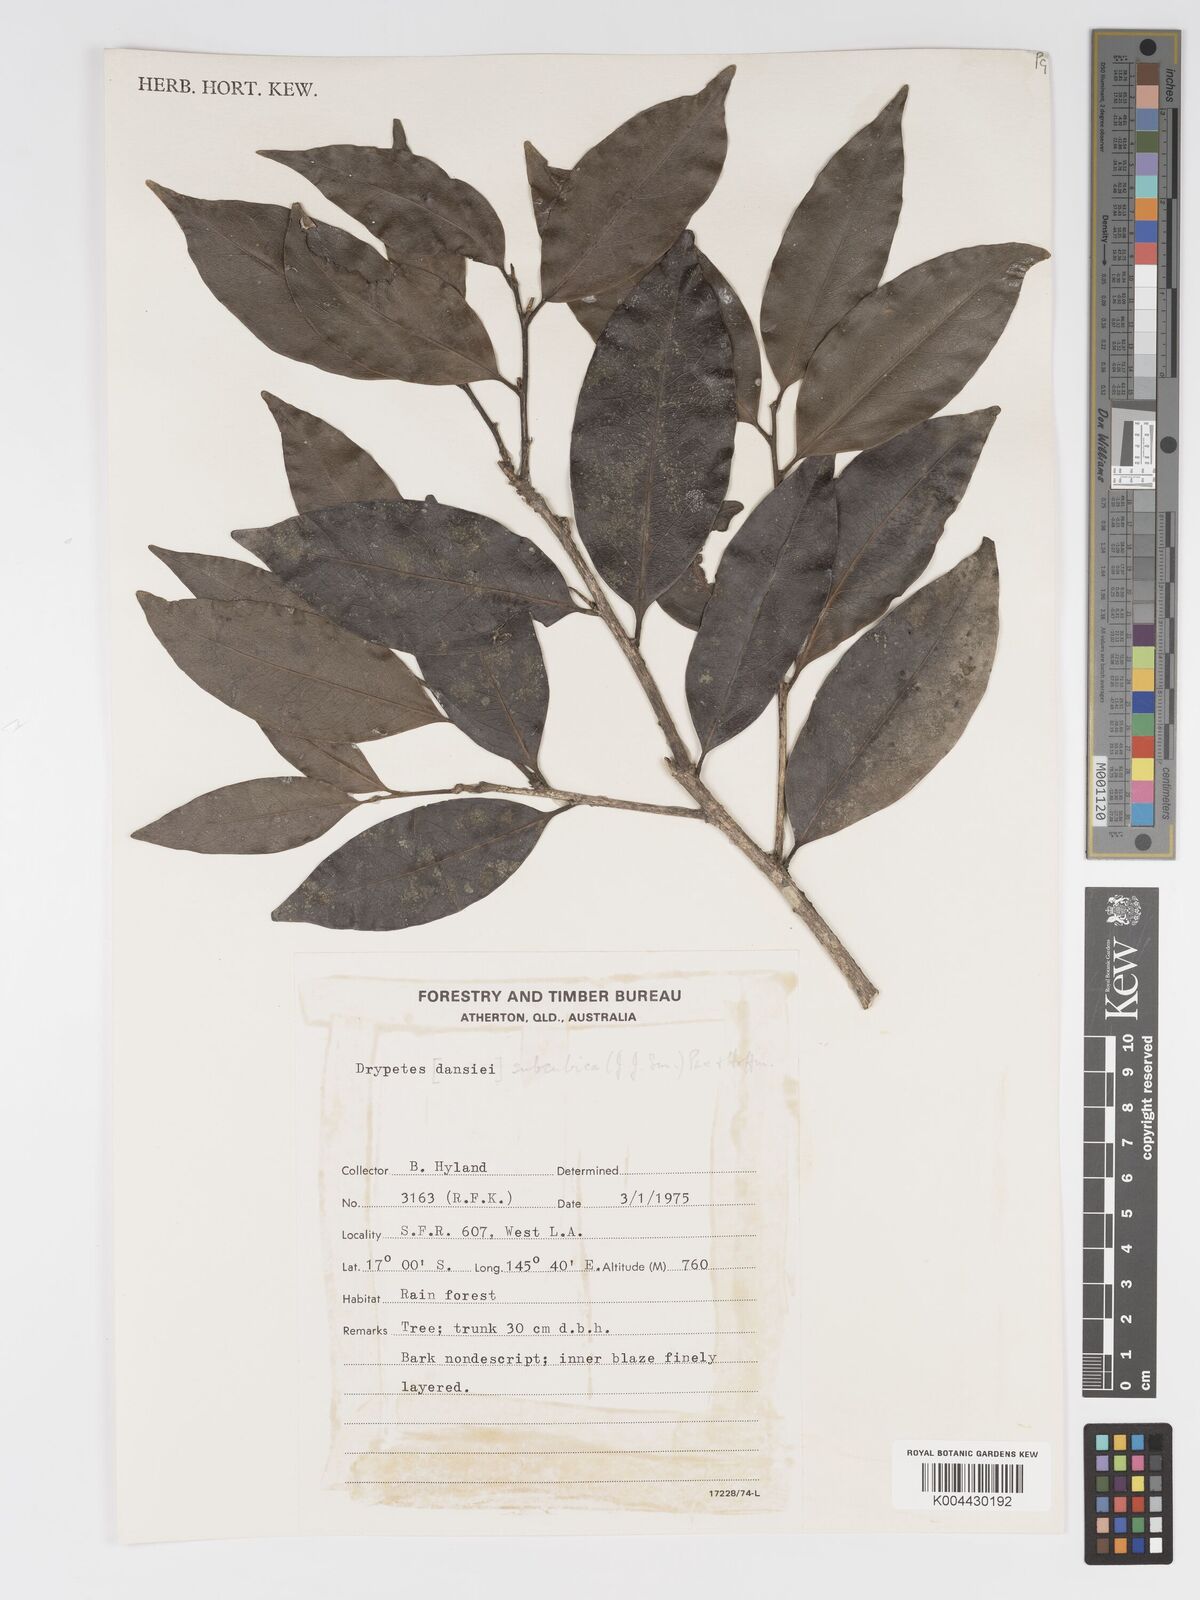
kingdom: Plantae
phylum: Tracheophyta
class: Magnoliopsida
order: Malpighiales
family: Putranjivaceae
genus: Drypetes
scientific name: Drypetes subcubica
